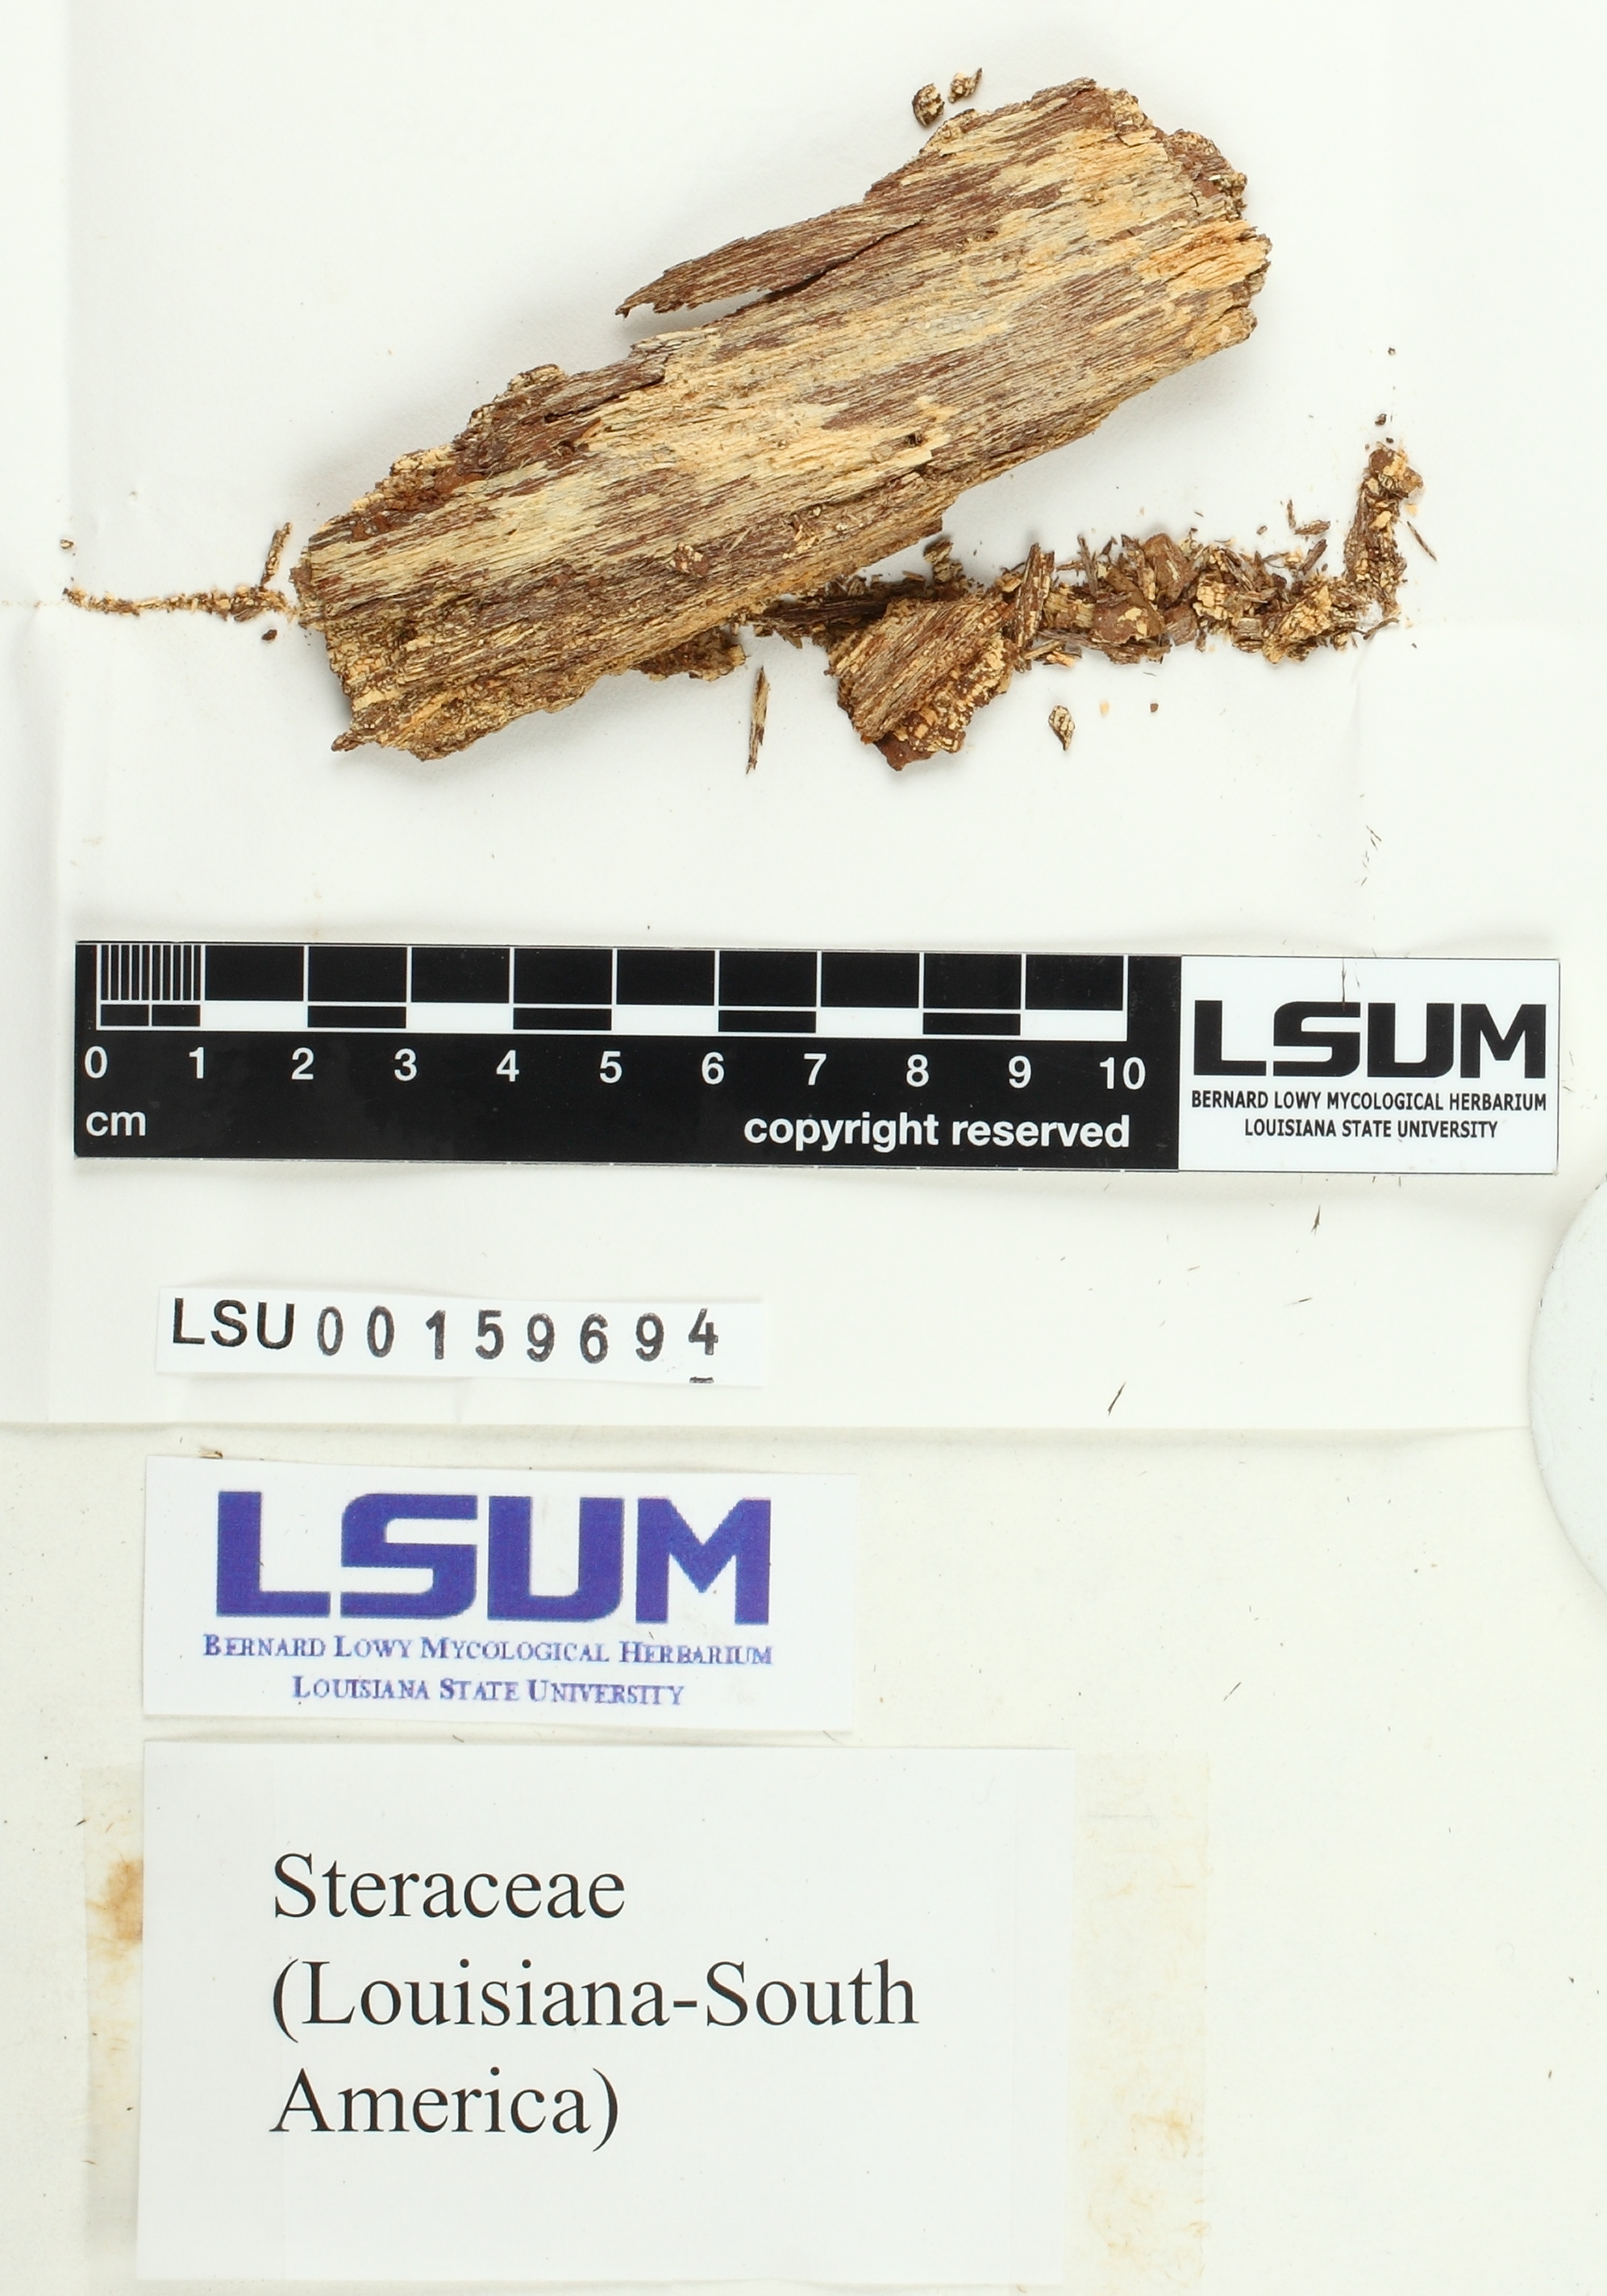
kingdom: Fungi
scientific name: Fungi
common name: Fungi
